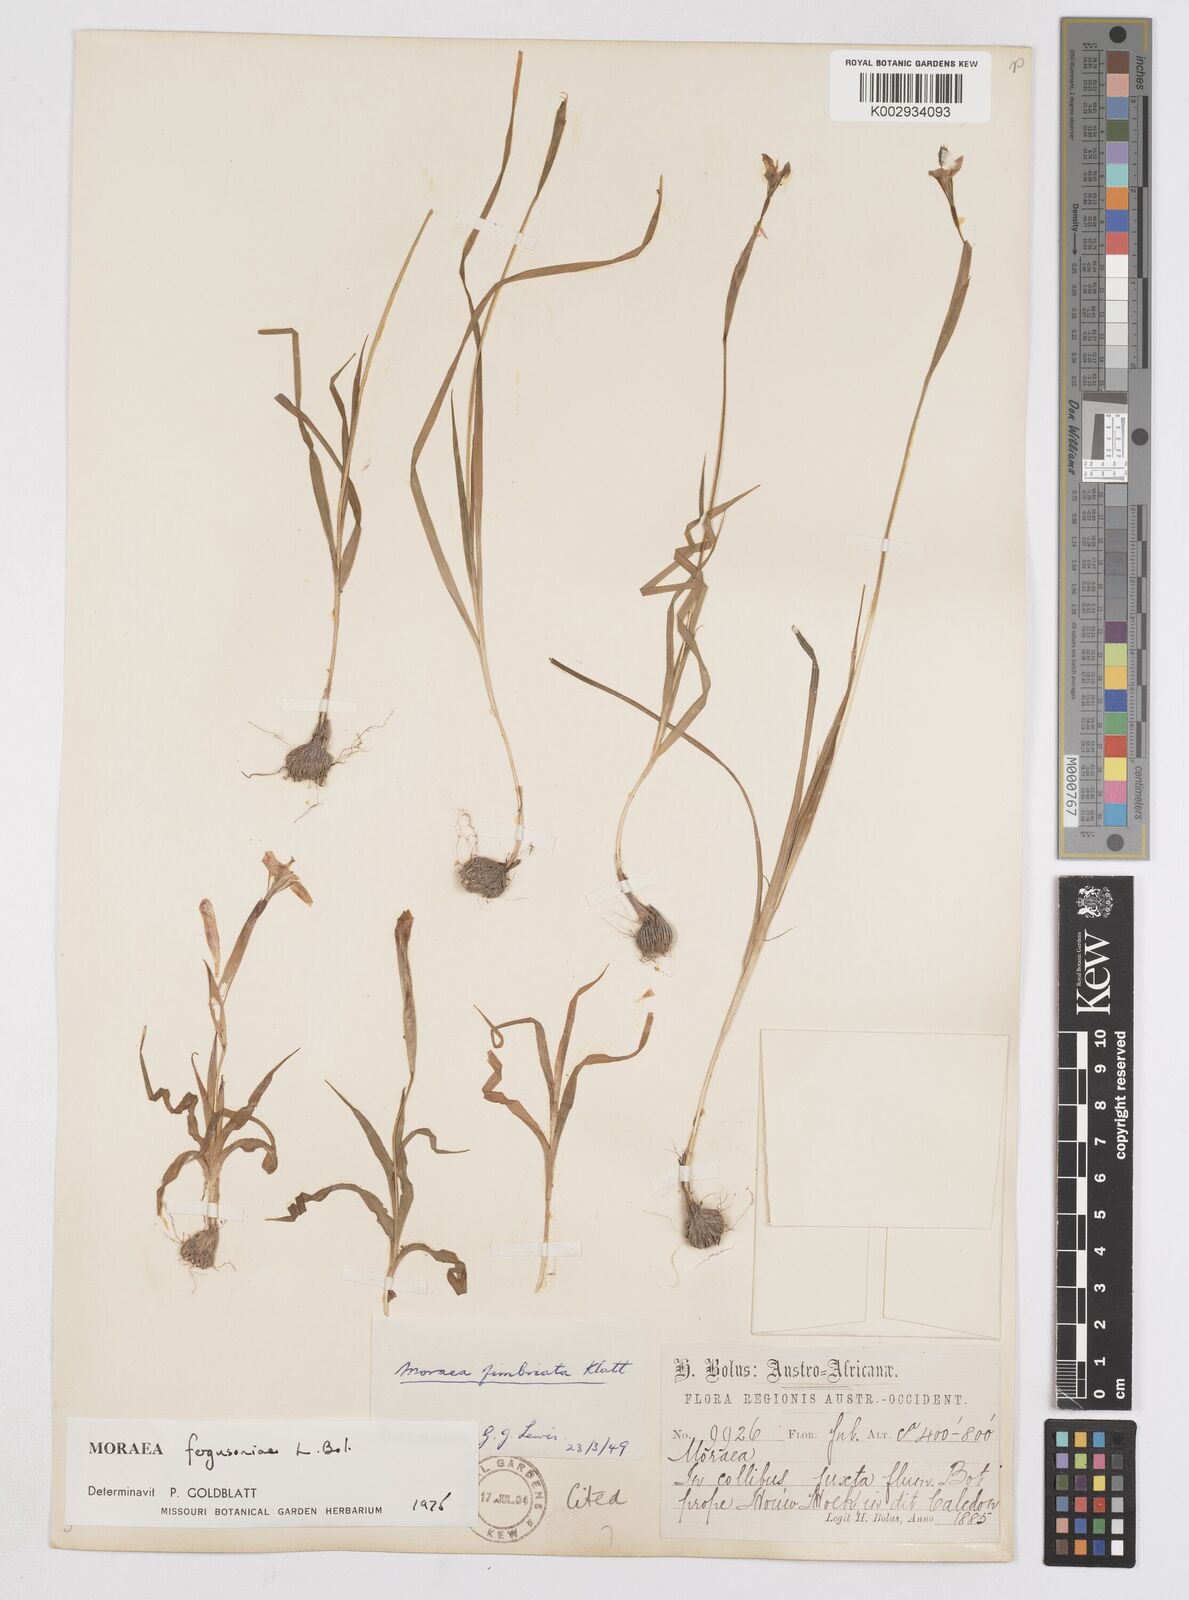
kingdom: Plantae
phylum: Tracheophyta
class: Liliopsida
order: Asparagales
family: Iridaceae
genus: Moraea
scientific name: Moraea fergusoniae
